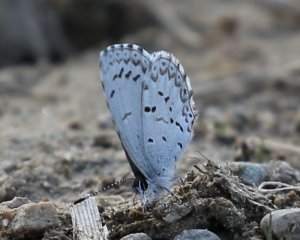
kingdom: Animalia
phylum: Arthropoda
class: Insecta
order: Lepidoptera
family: Lycaenidae
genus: Celastrina
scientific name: Celastrina lucia
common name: Northern Spring Azure
